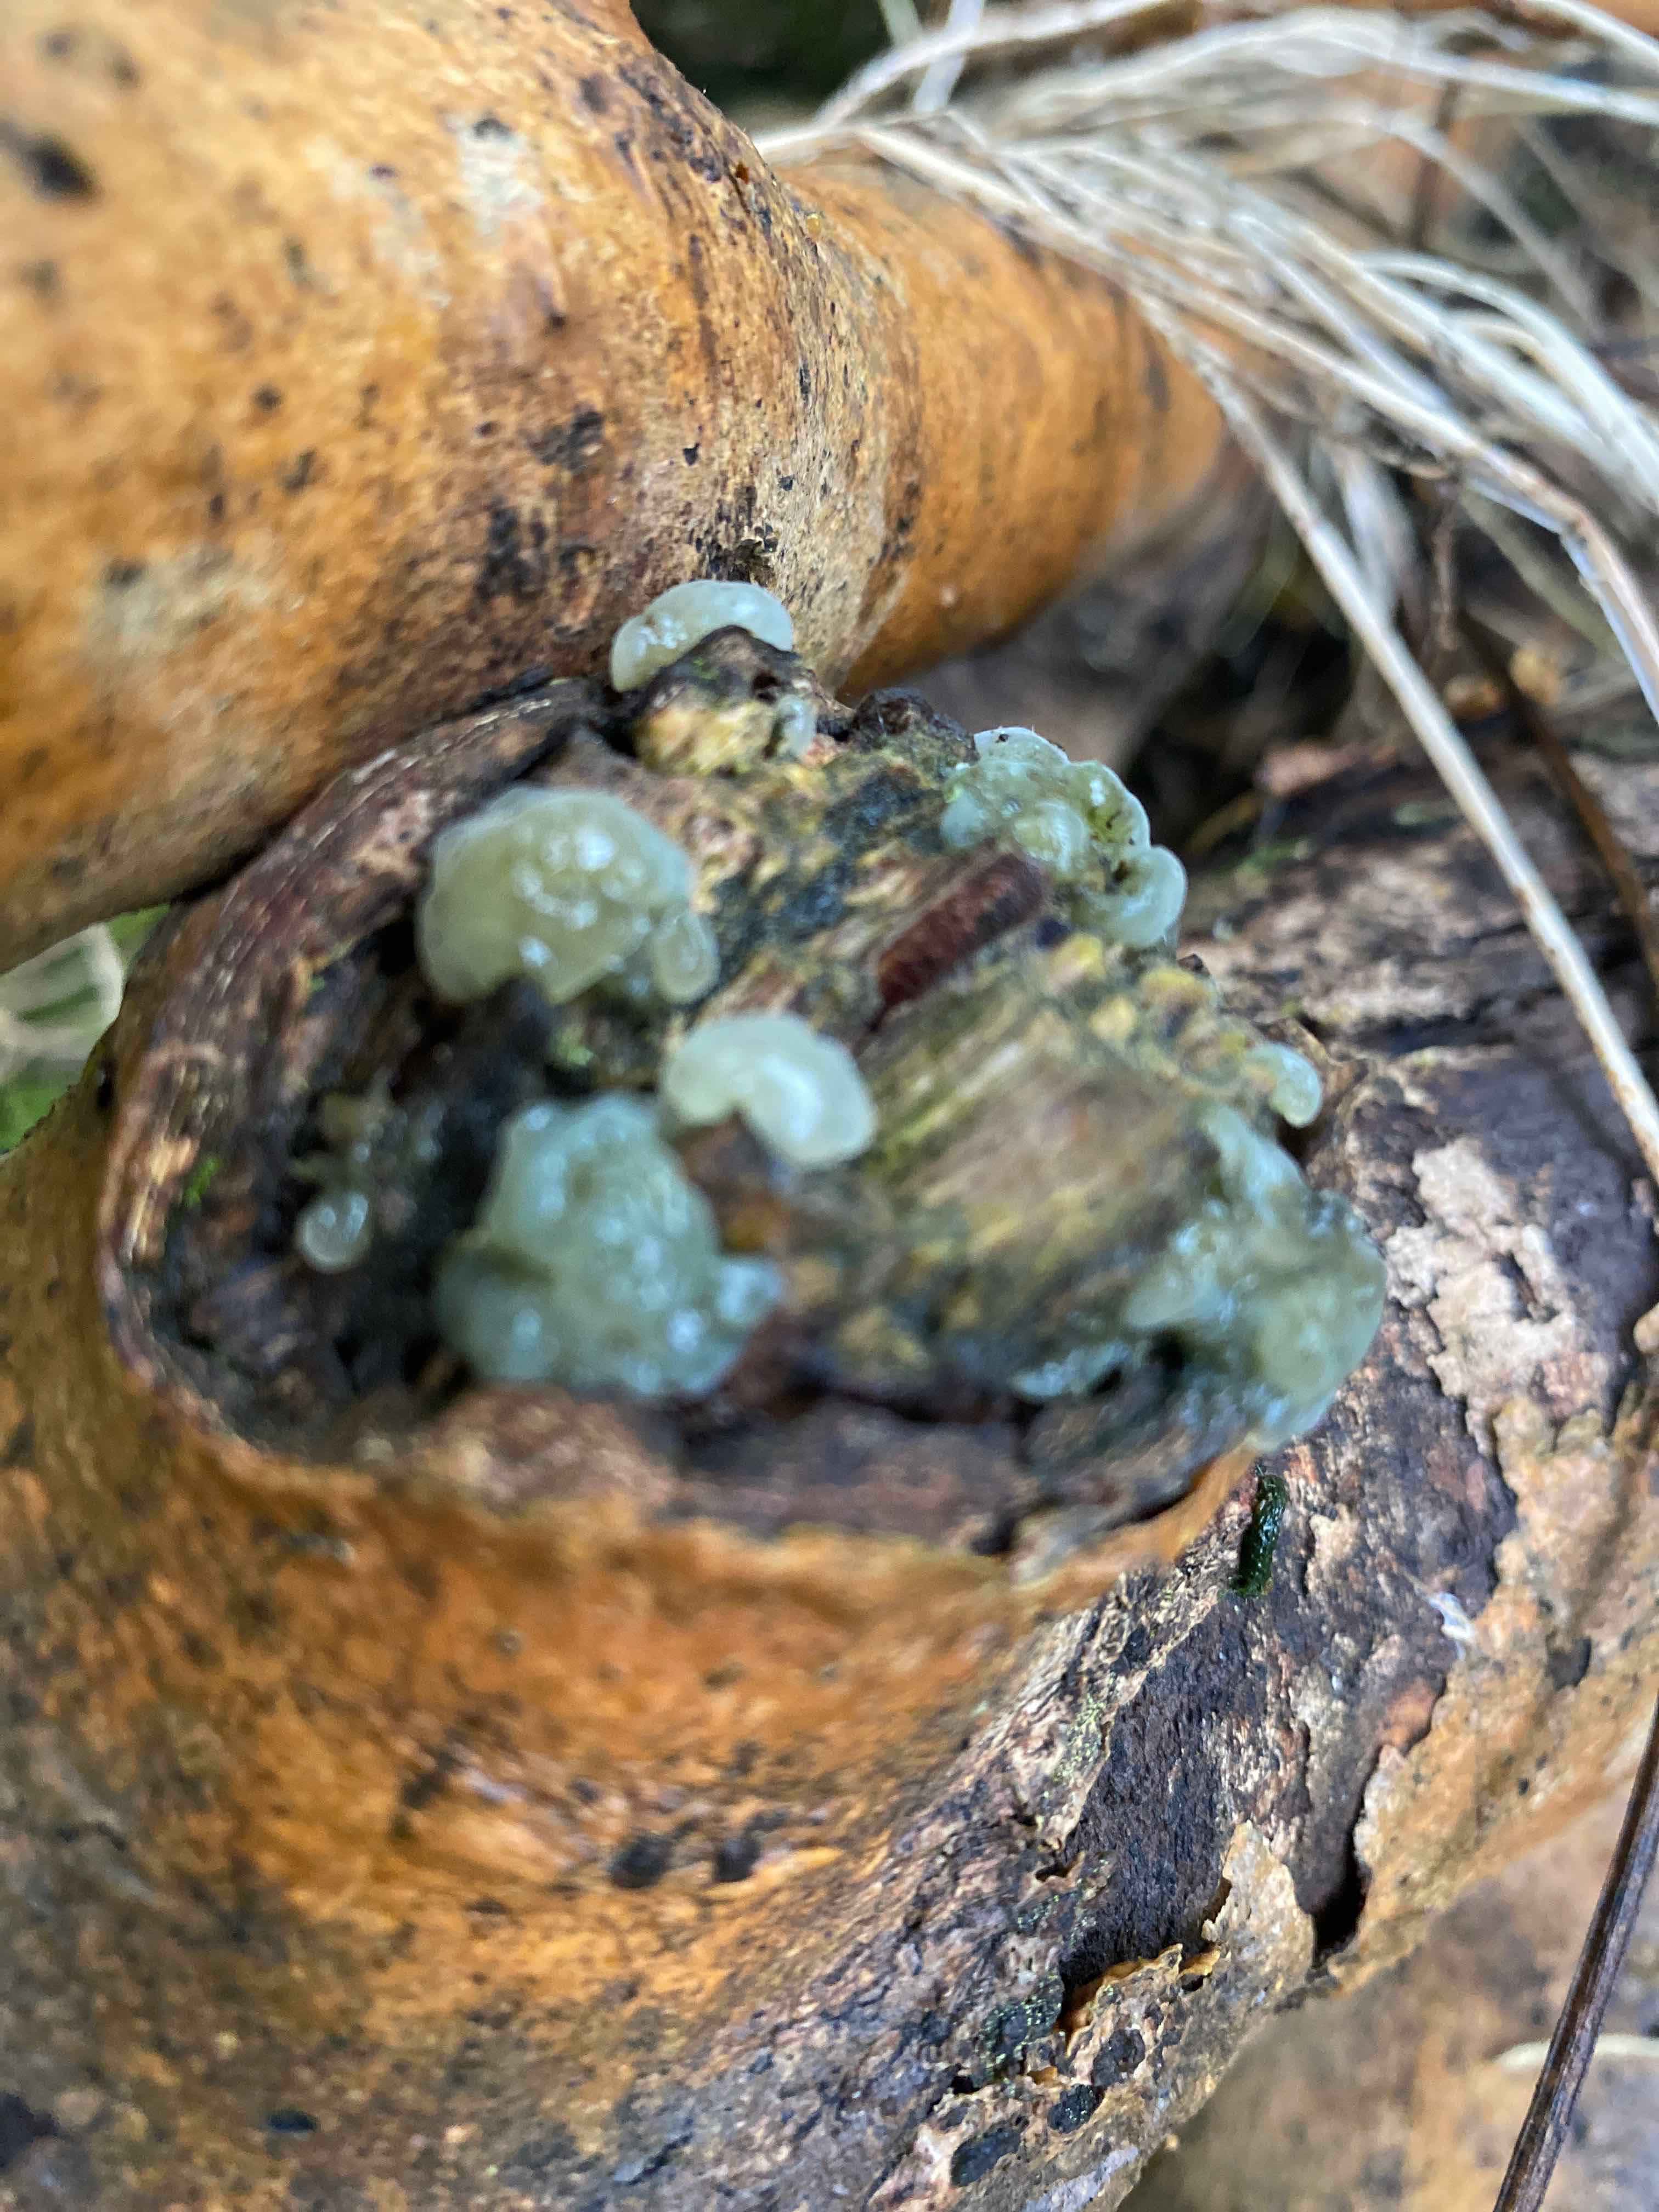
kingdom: Fungi
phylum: Basidiomycota
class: Agaricomycetes
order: Auriculariales
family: Hyaloriaceae
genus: Myxarium
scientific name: Myxarium nucleatum
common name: klar bævretop
